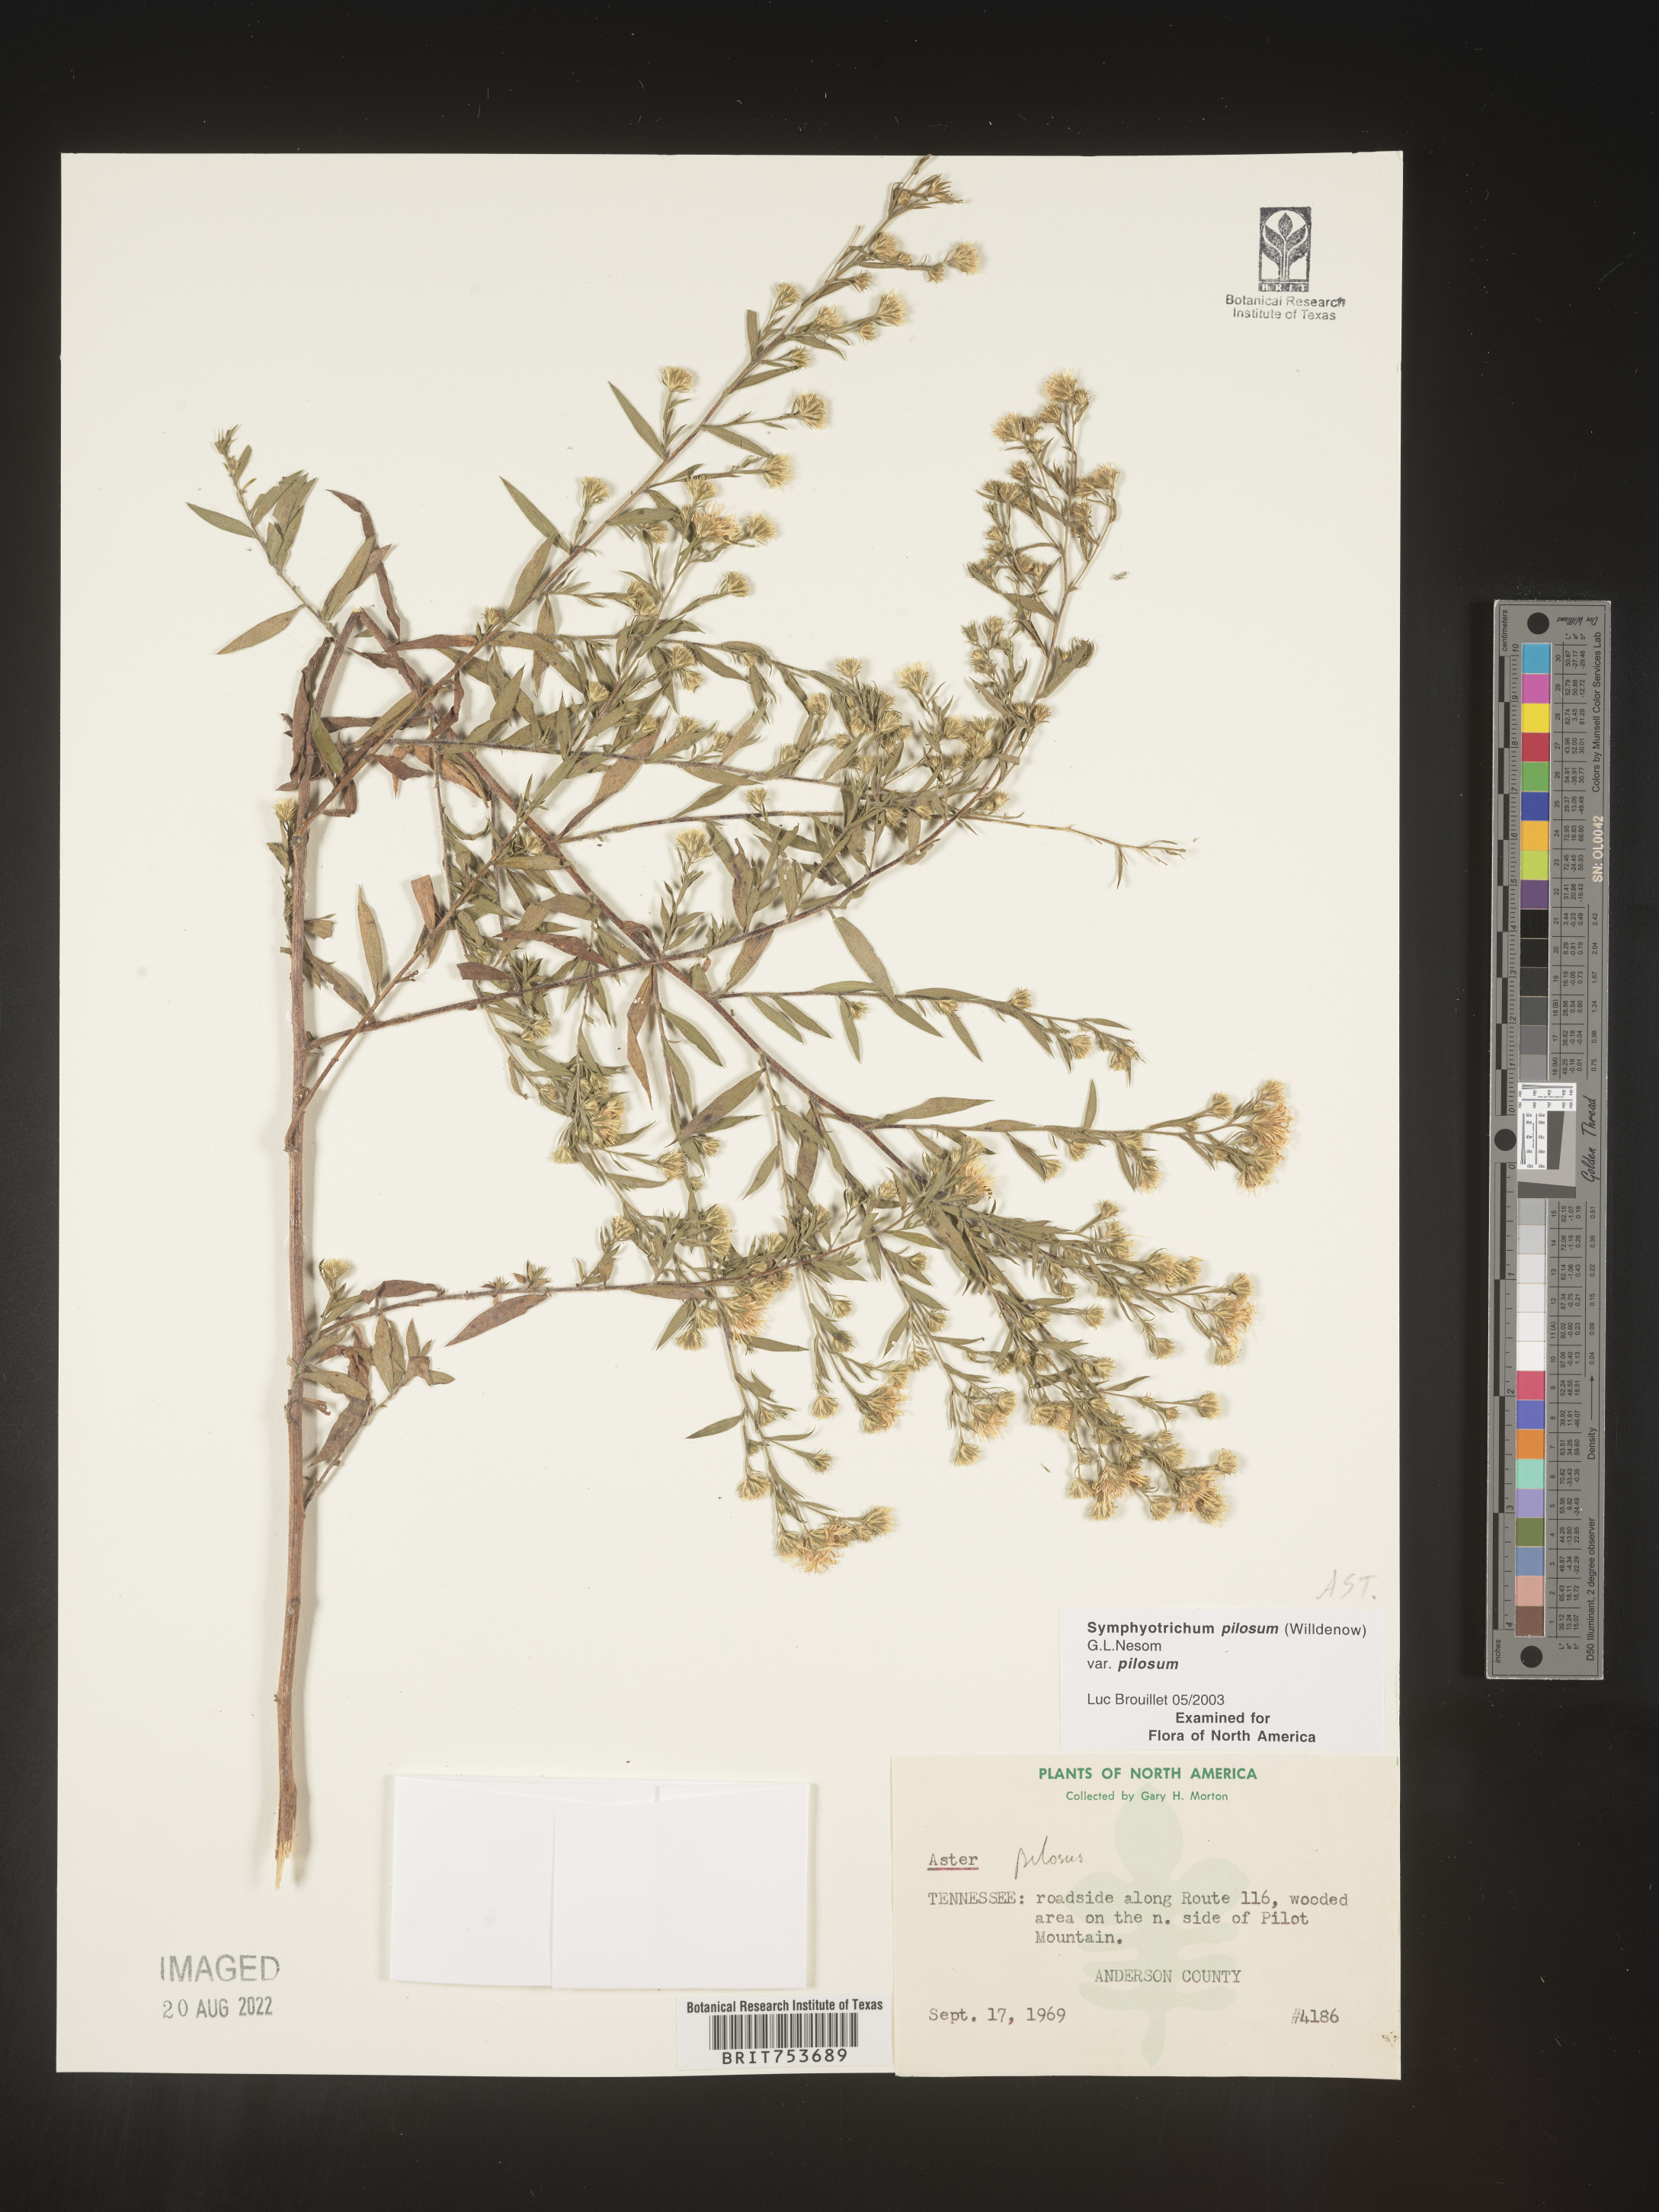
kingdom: Plantae
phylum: Tracheophyta
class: Magnoliopsida
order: Asterales
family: Asteraceae
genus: Symphyotrichum
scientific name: Symphyotrichum pilosum
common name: Awl aster
